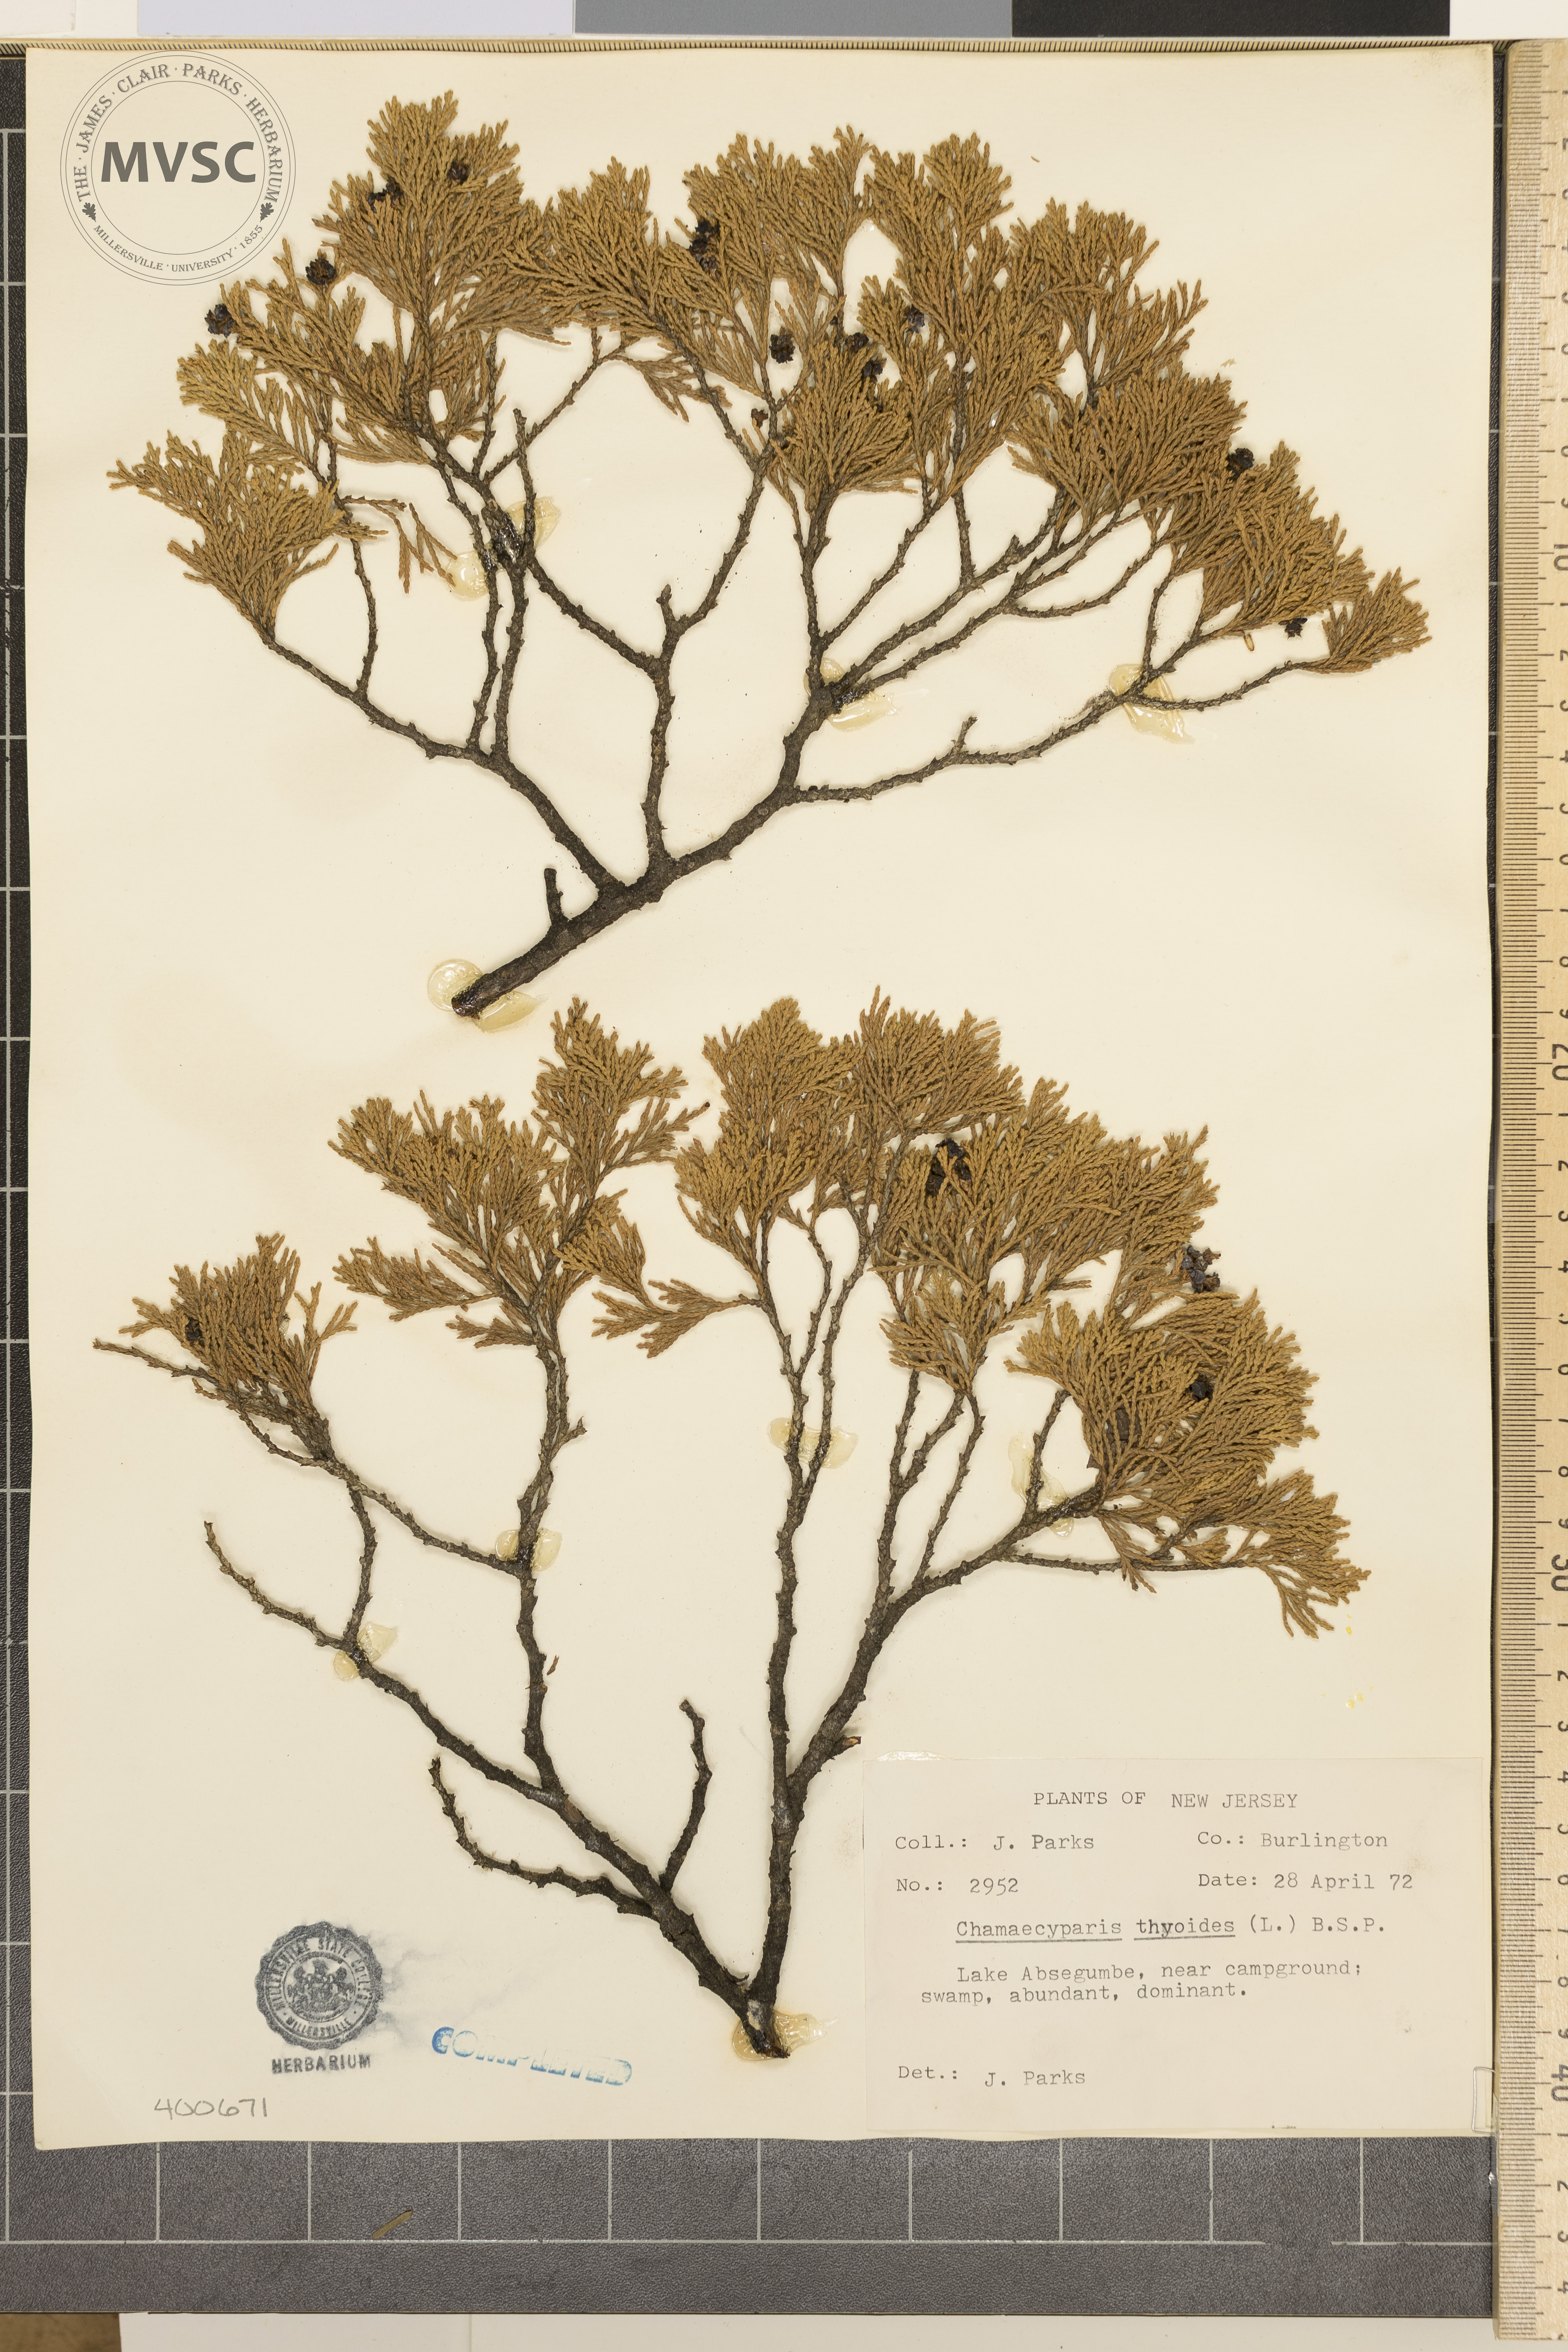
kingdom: Plantae
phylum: Tracheophyta
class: Pinopsida
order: Pinales
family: Cupressaceae
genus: Chamaecyparis
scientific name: Chamaecyparis thyoides
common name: Atlantic white-cedar
